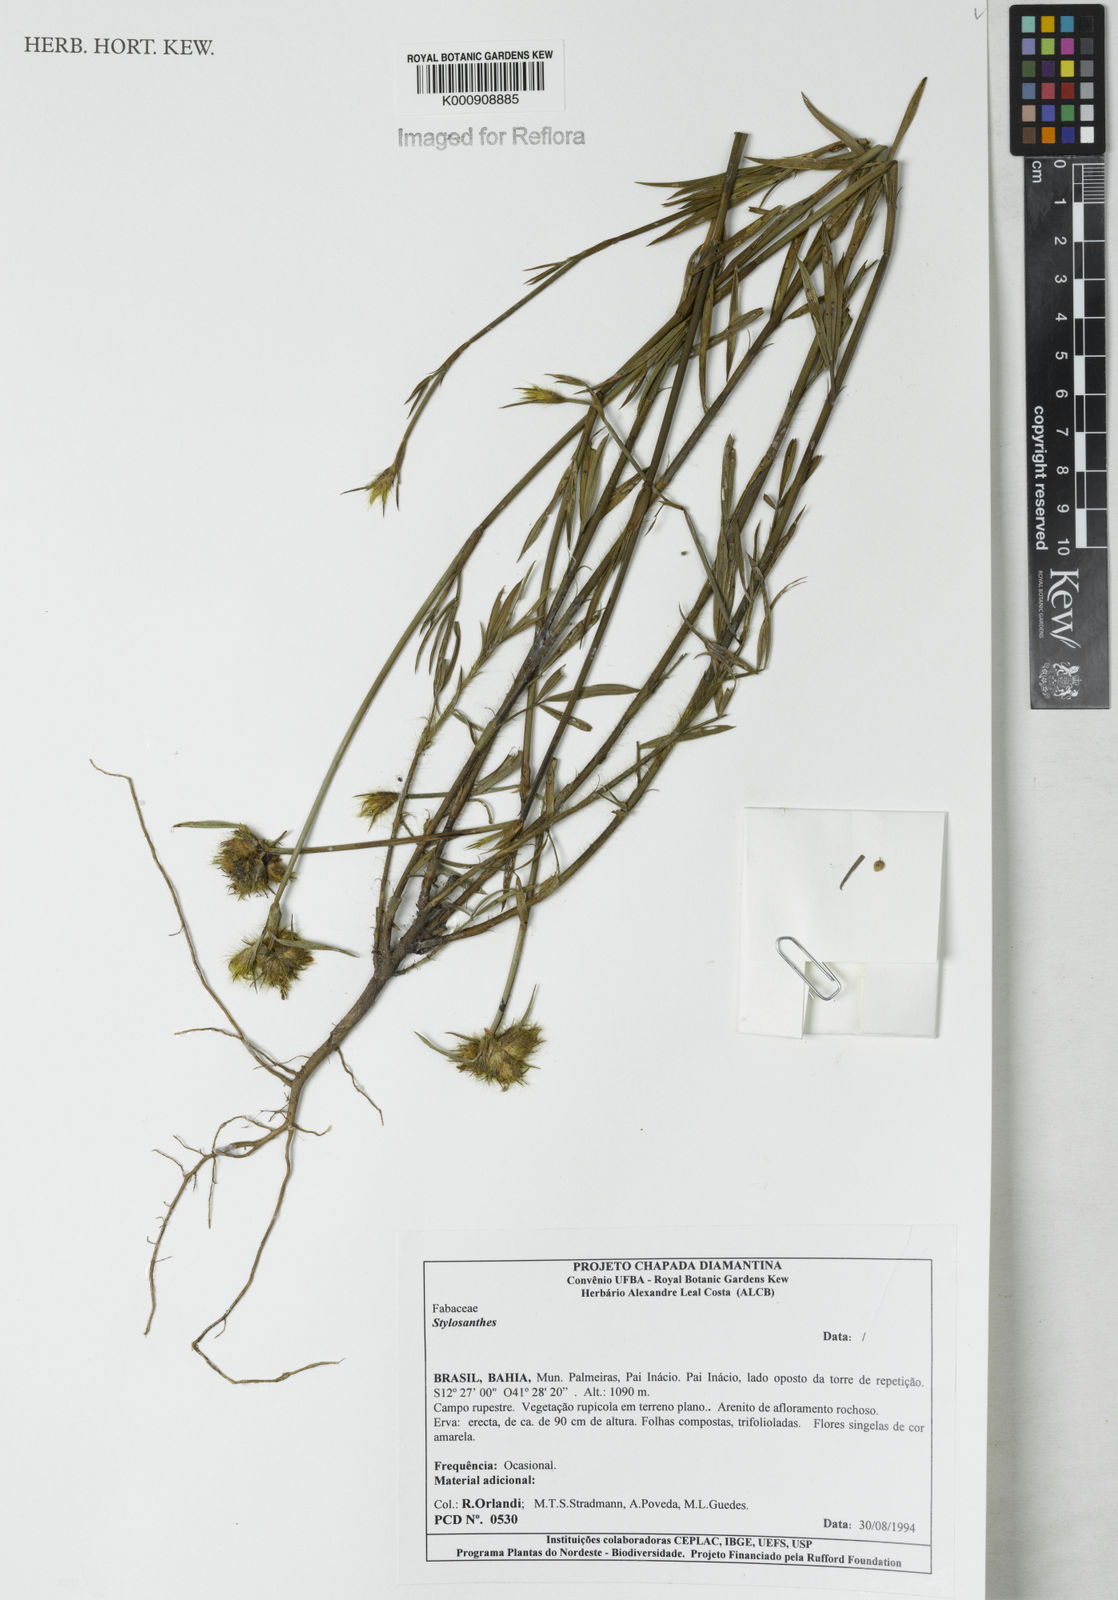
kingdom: Plantae
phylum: Tracheophyta
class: Magnoliopsida
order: Fabales
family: Fabaceae
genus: Stylosanthes
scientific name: Stylosanthes
